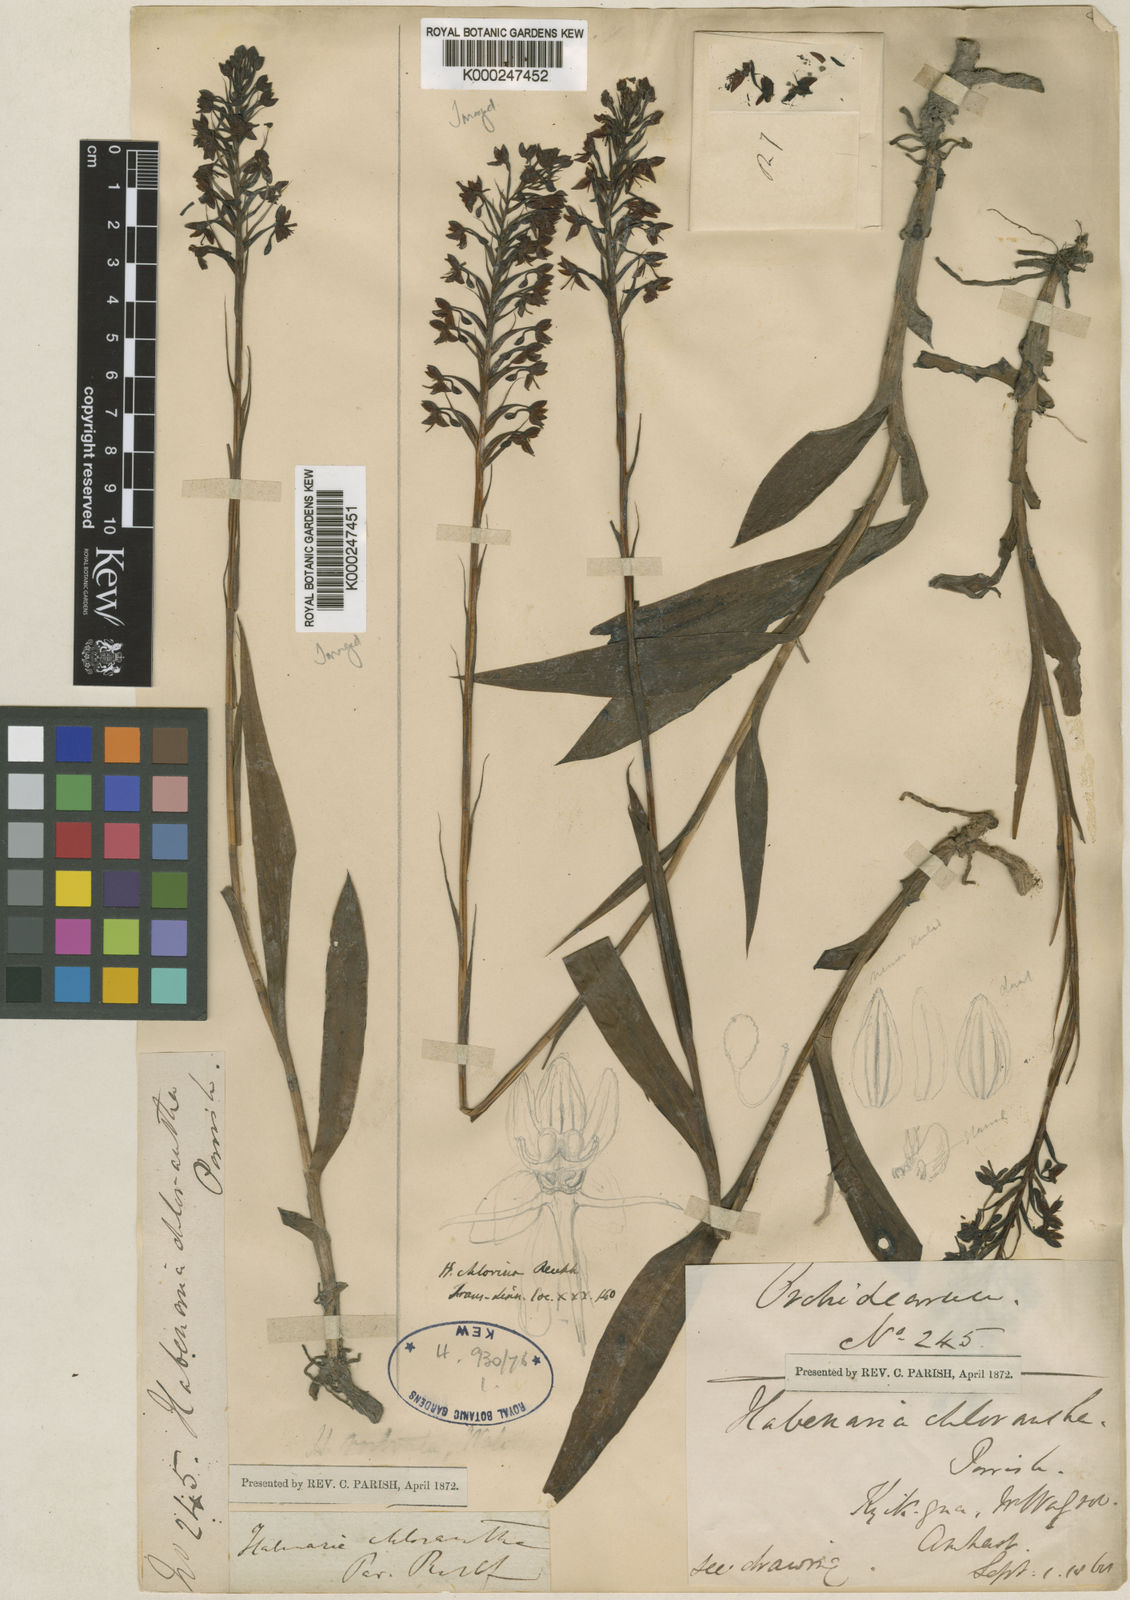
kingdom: Plantae
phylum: Tracheophyta
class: Liliopsida
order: Asparagales
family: Orchidaceae
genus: Habenaria
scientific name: Habenaria chlorina
